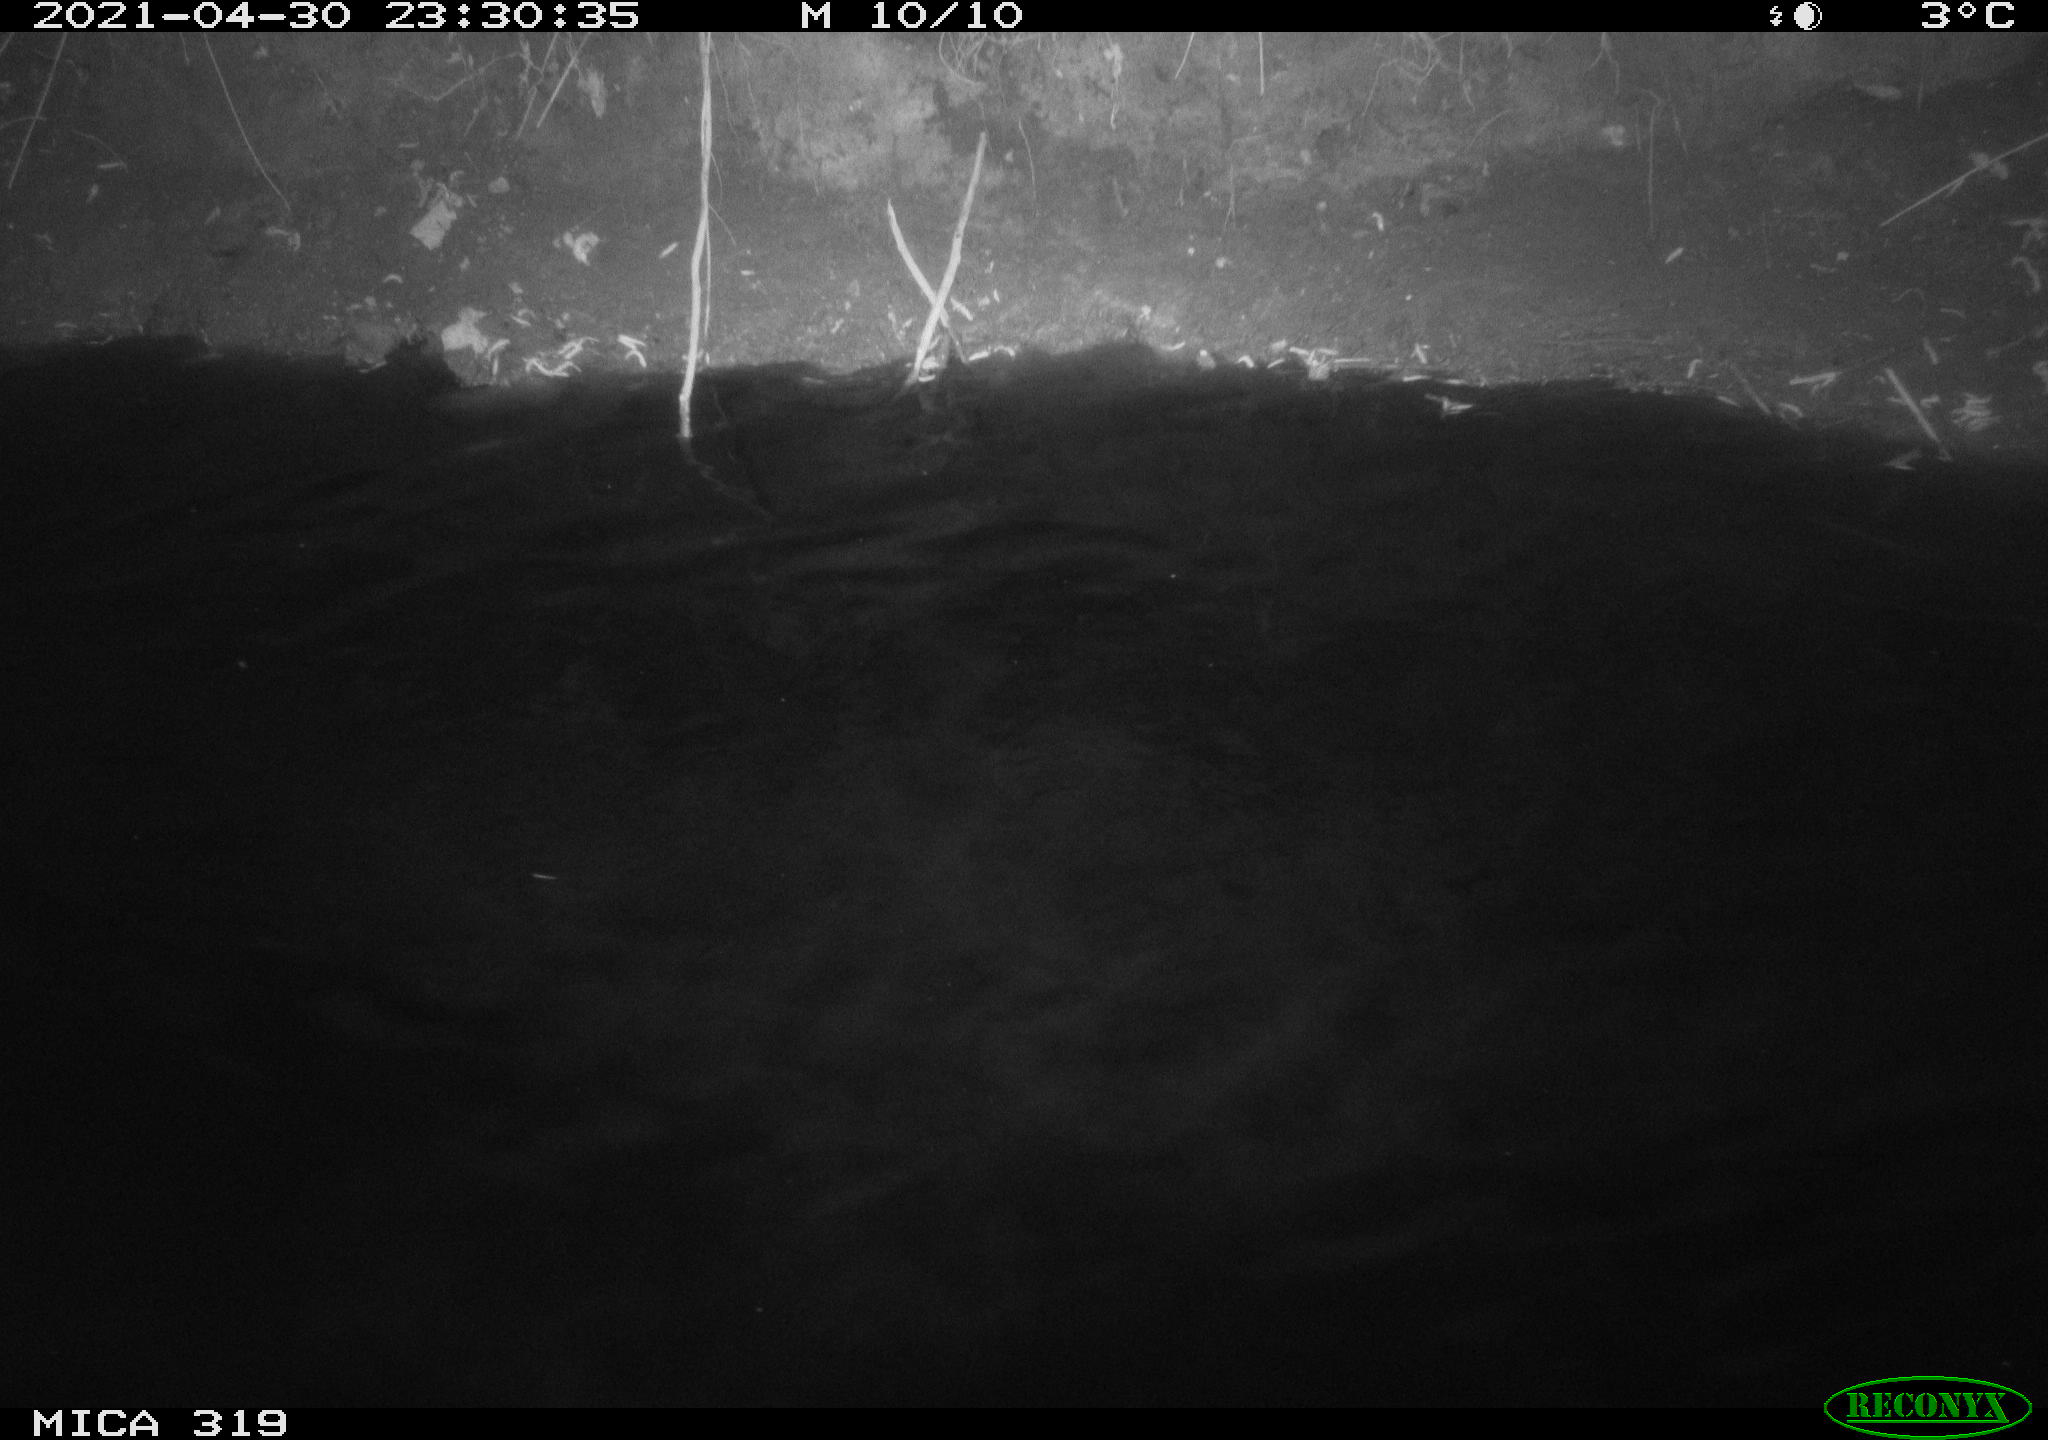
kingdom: Animalia
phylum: Chordata
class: Aves
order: Anseriformes
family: Anatidae
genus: Anas
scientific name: Anas platyrhynchos
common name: Mallard
